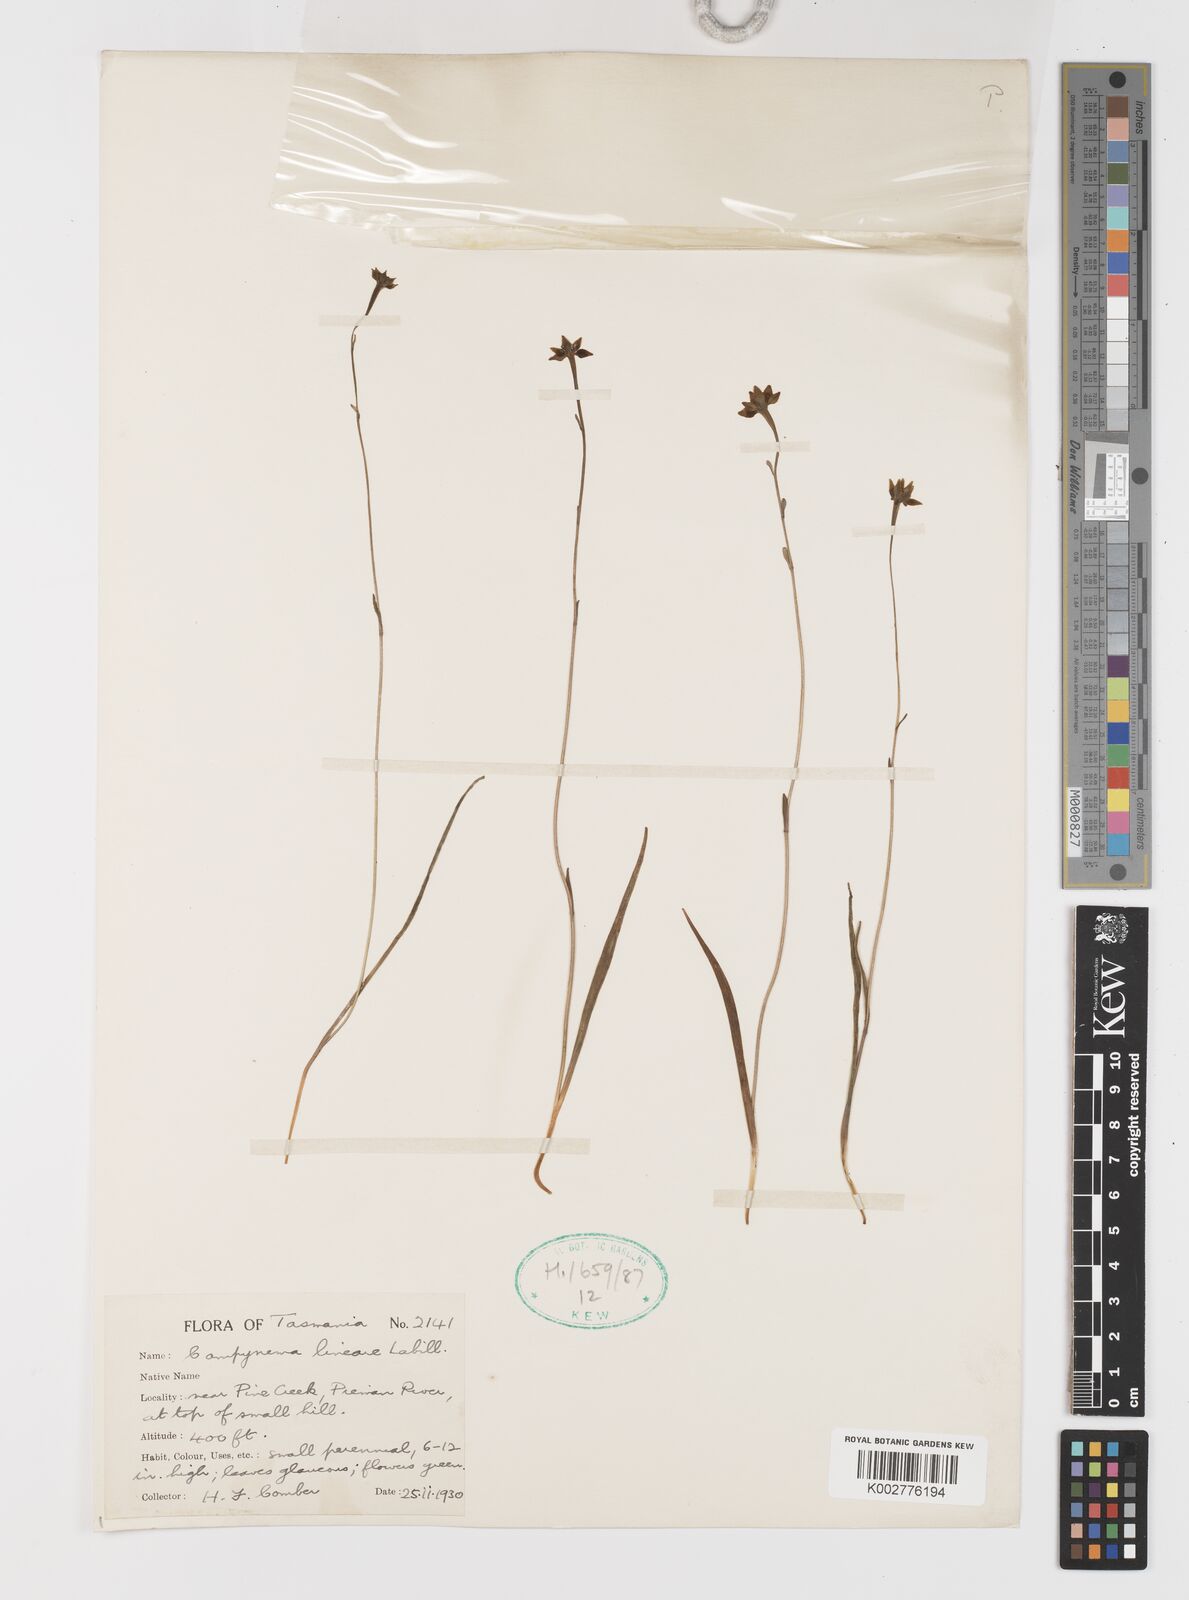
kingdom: Plantae
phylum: Tracheophyta
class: Liliopsida
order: Liliales
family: Campynemataceae
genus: Campynema
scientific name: Campynema lineare
